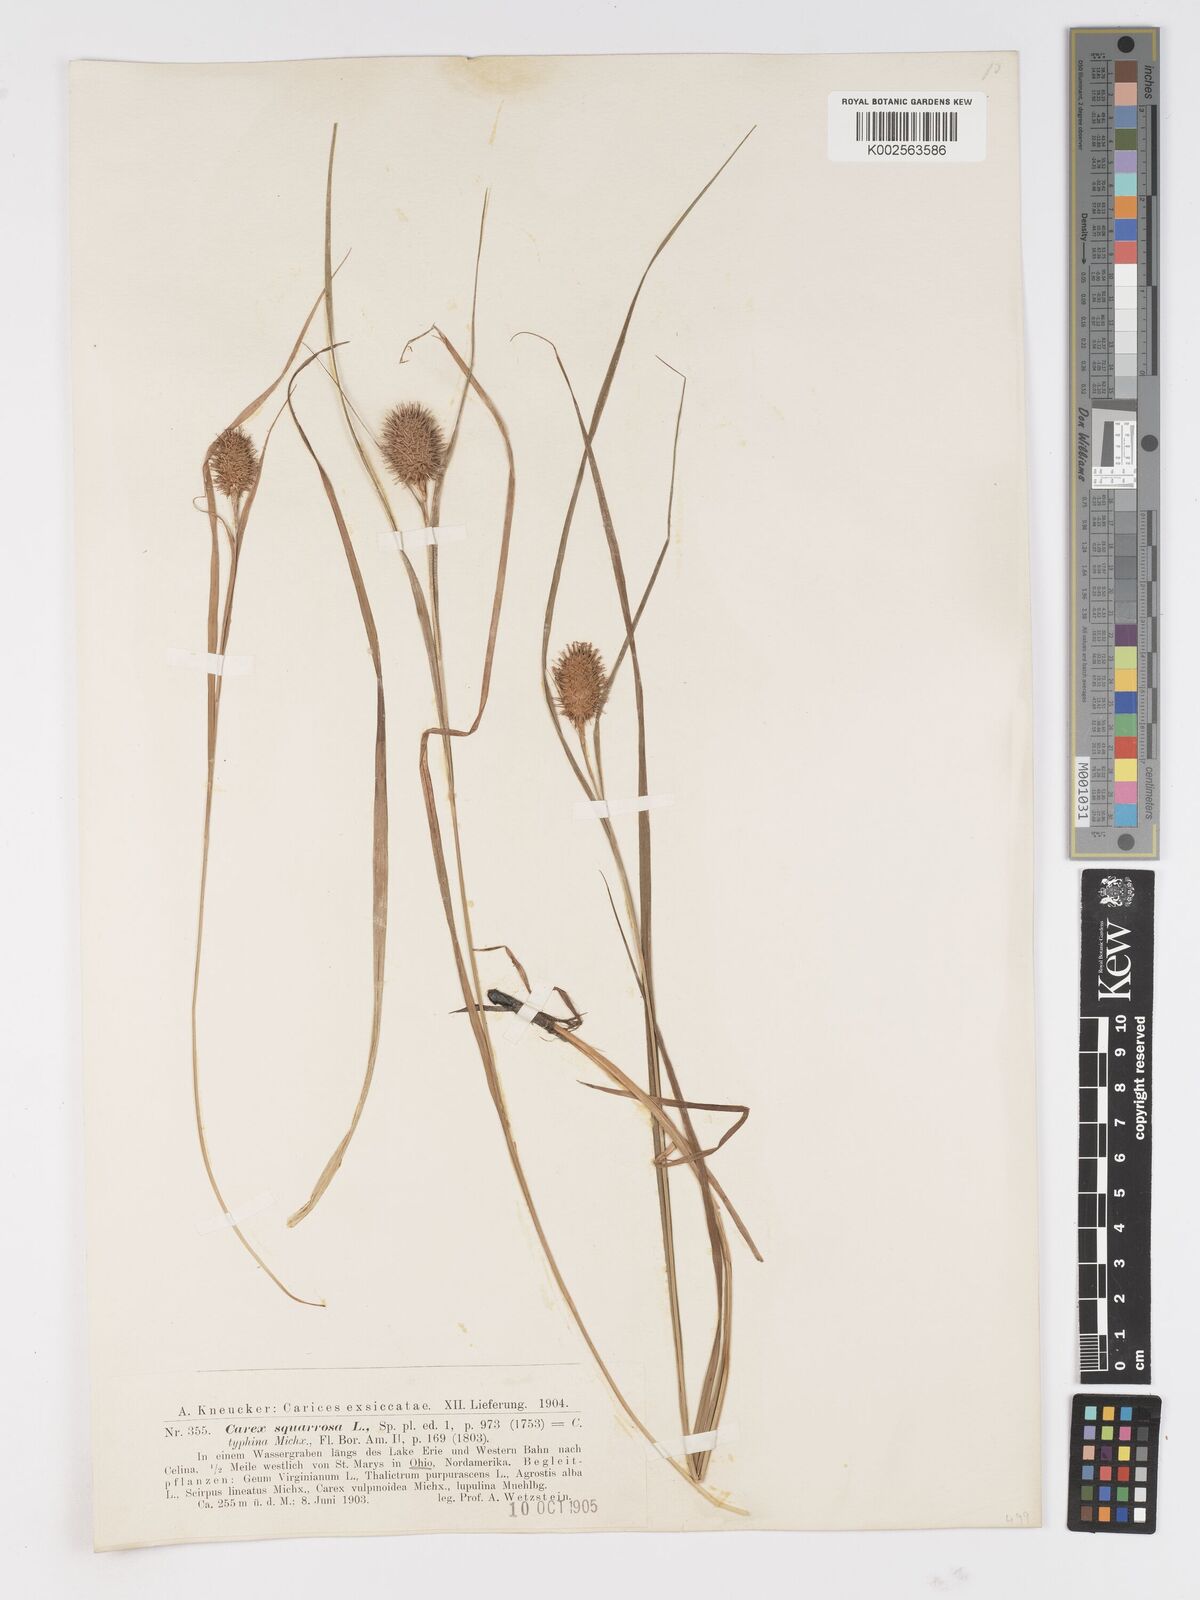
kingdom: Plantae
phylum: Tracheophyta
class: Liliopsida
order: Poales
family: Cyperaceae
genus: Carex
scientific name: Carex typhina
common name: Cattail sedge
